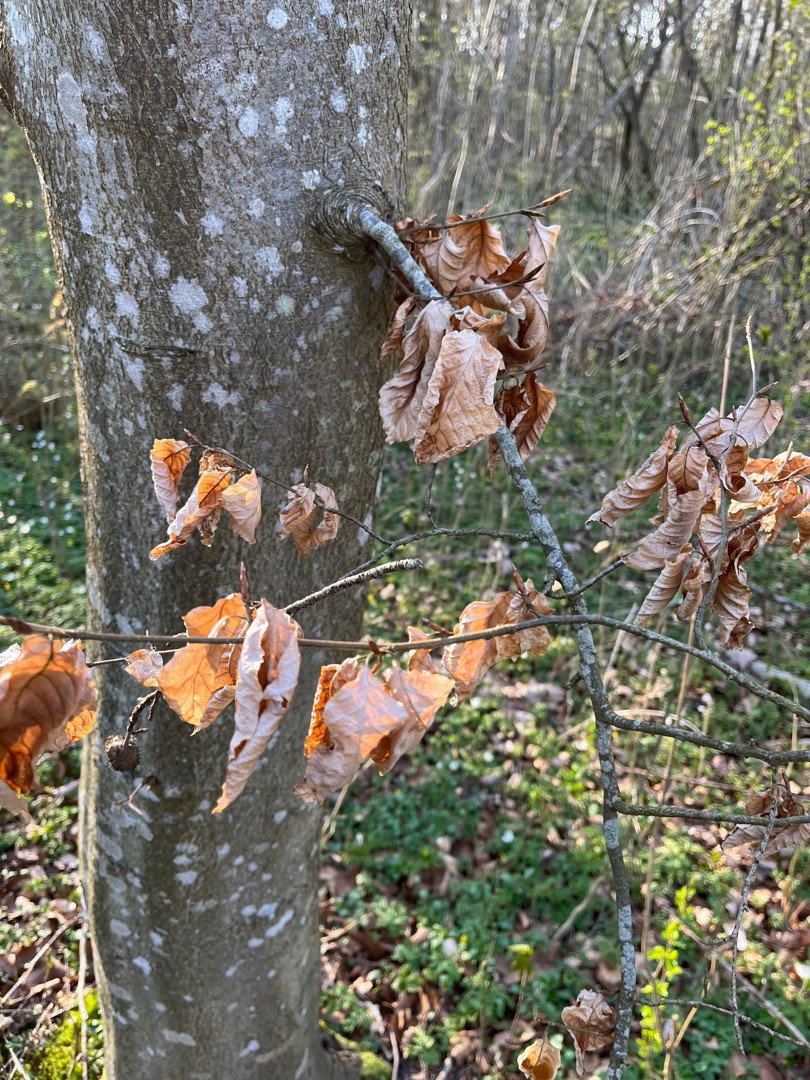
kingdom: Plantae
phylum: Tracheophyta
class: Magnoliopsida
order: Fagales
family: Fagaceae
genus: Fagus
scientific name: Fagus sylvatica
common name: Bøg
